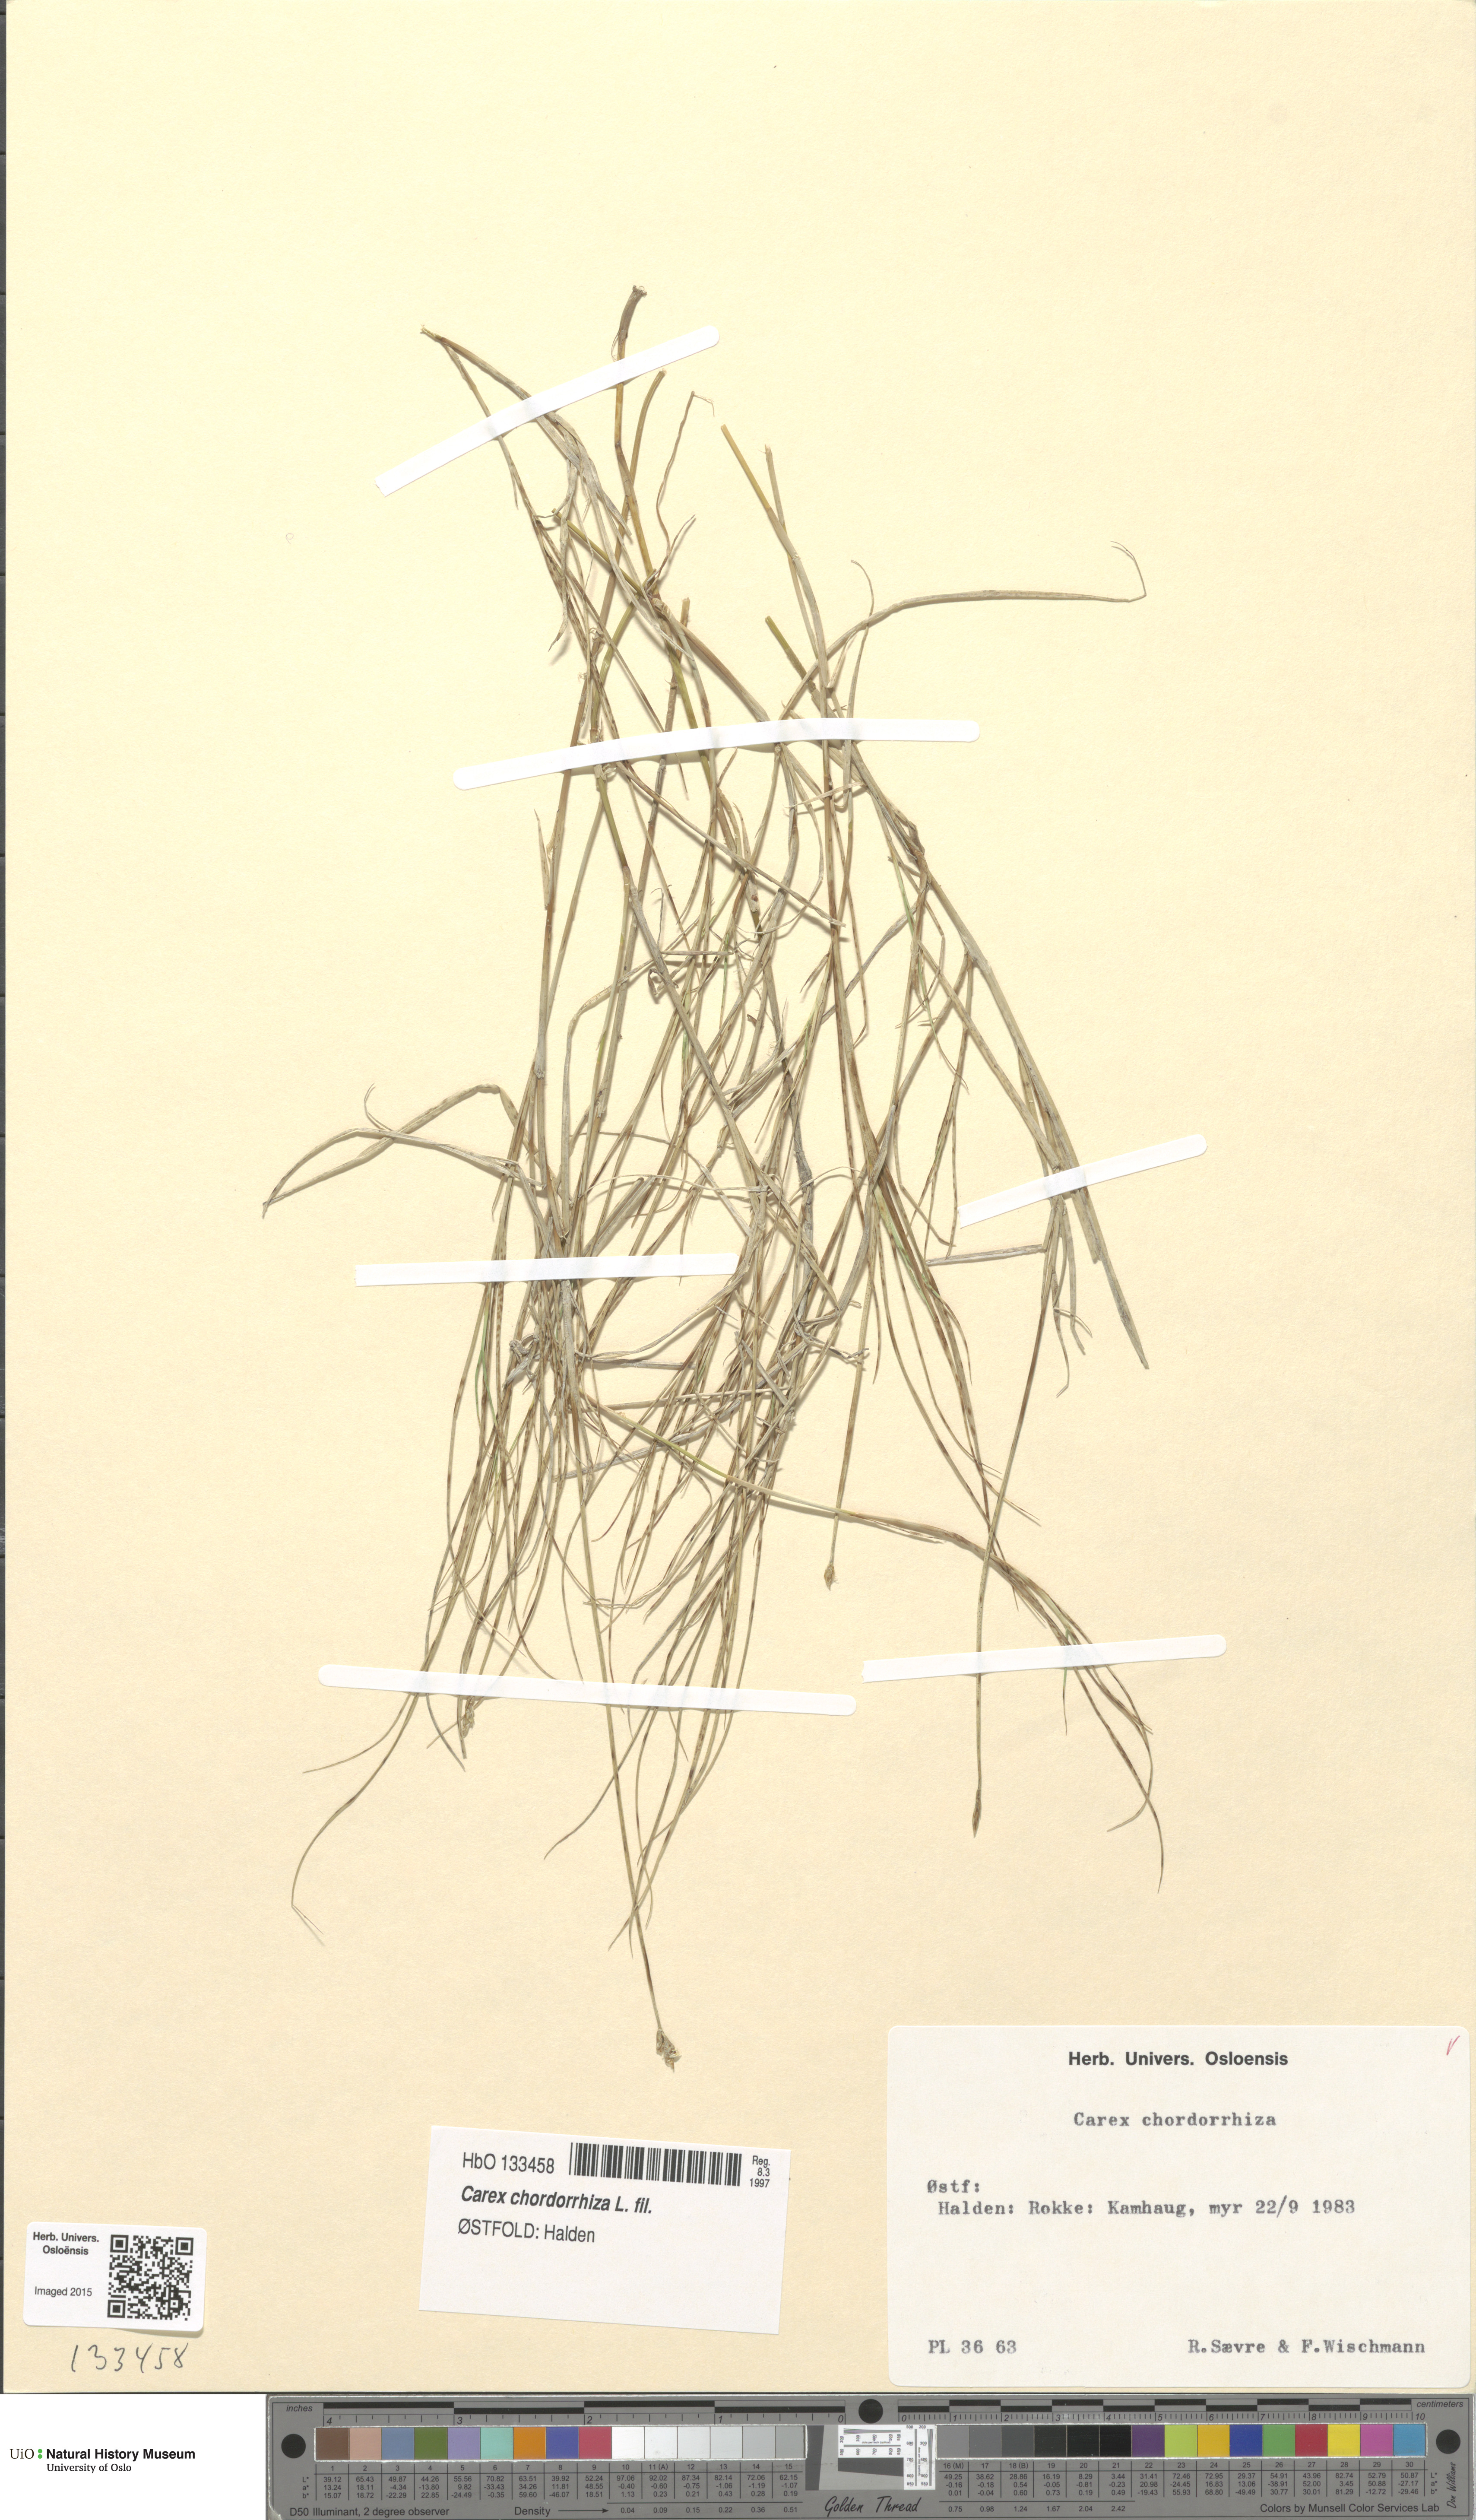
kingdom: Plantae
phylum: Tracheophyta
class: Liliopsida
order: Poales
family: Cyperaceae
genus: Carex
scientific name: Carex chordorrhiza
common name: String sedge
